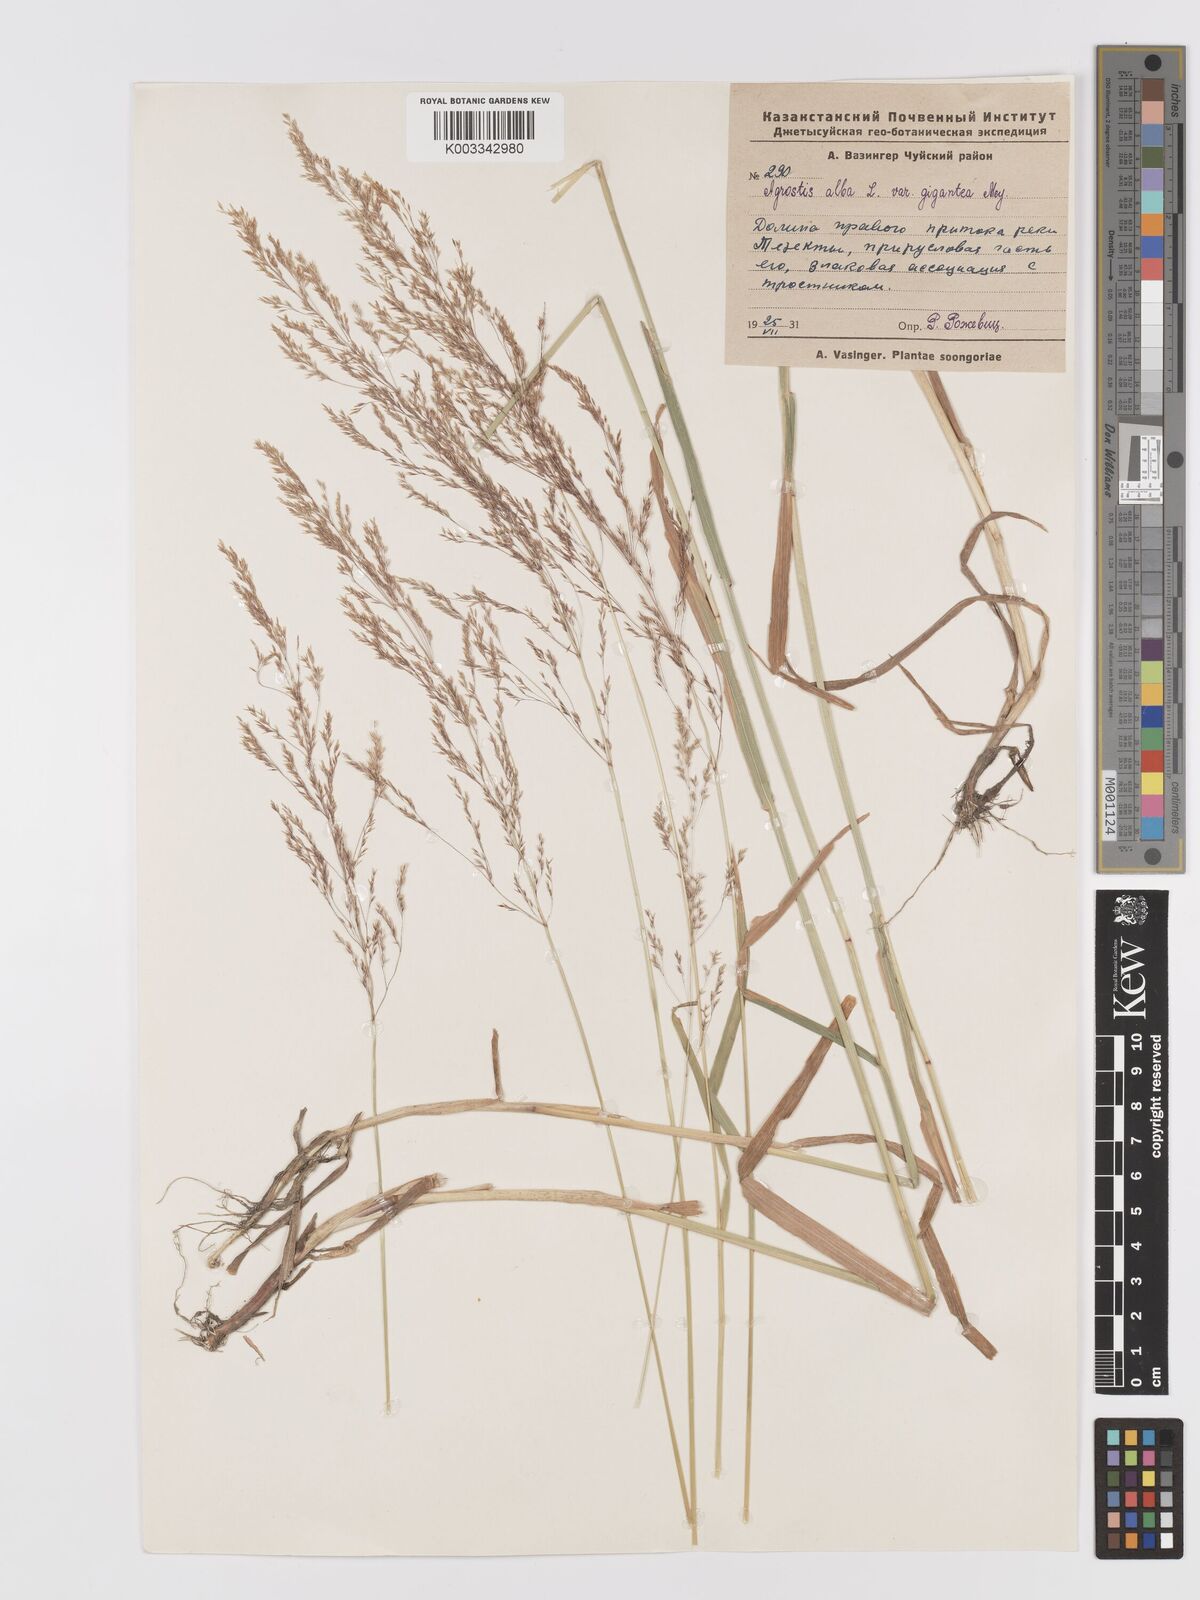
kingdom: Plantae
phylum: Tracheophyta
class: Liliopsida
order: Poales
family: Poaceae
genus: Agrostis
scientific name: Agrostis stolonifera
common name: Creeping bentgrass
